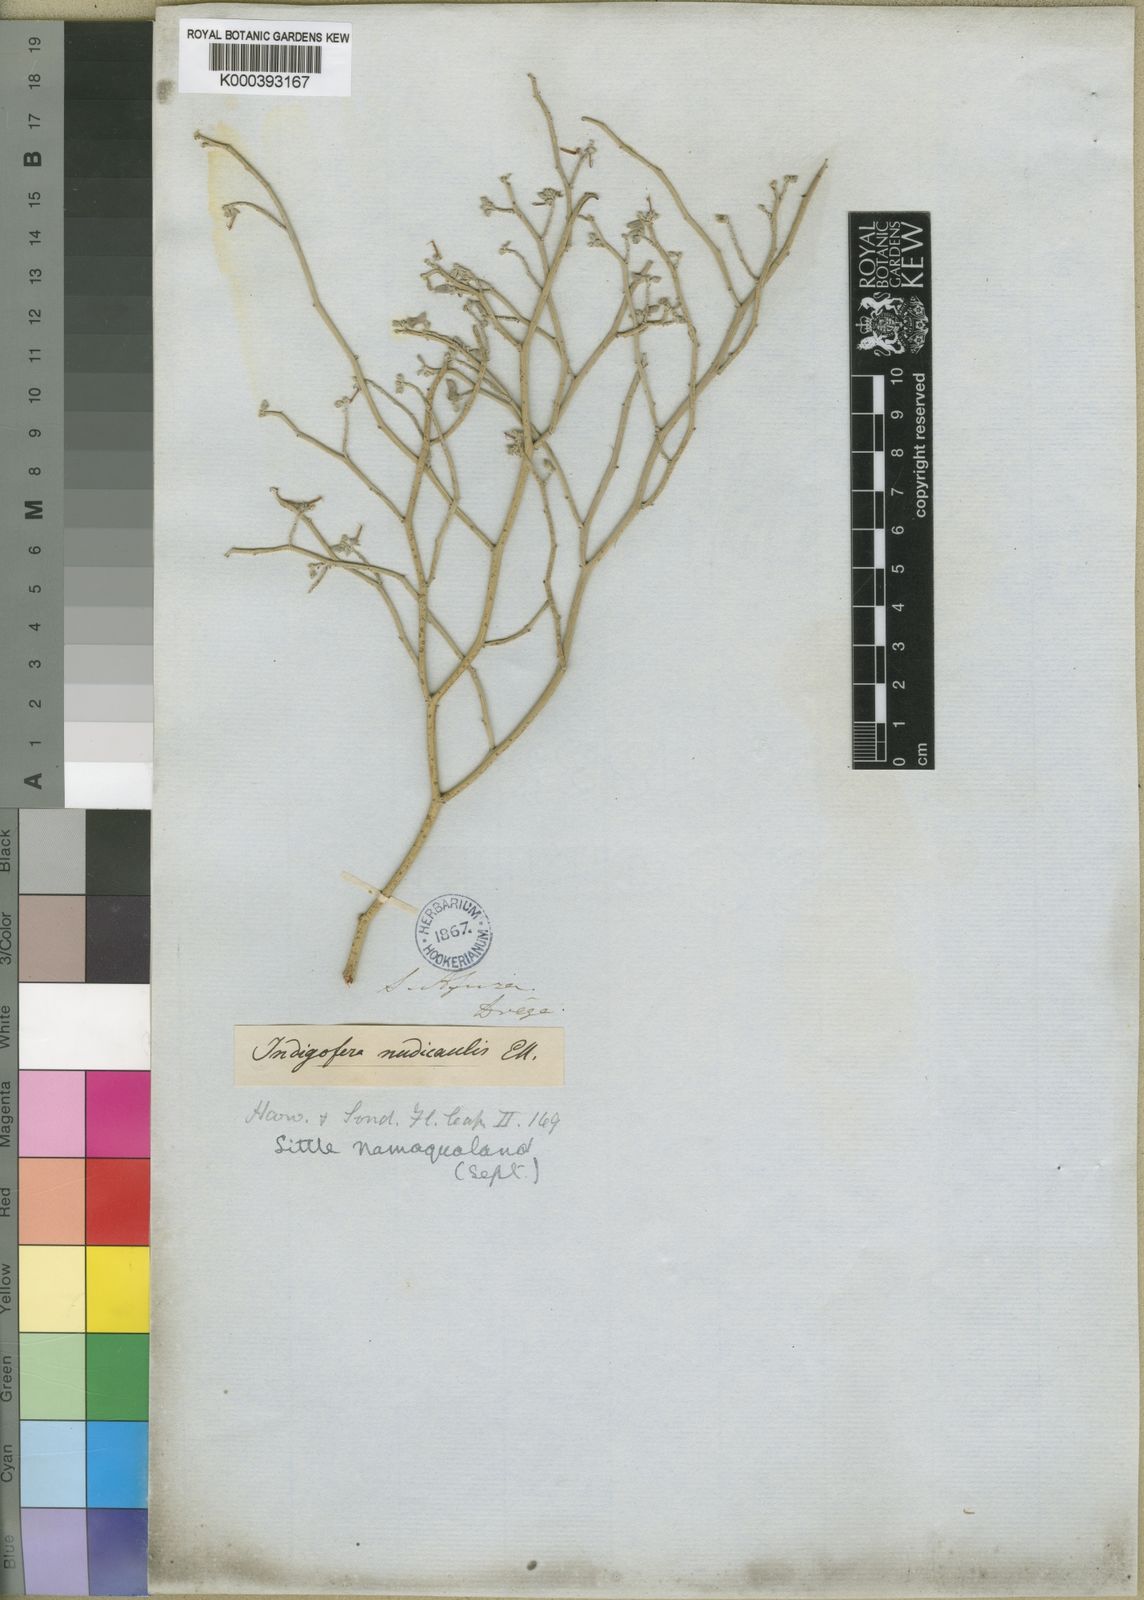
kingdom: Plantae
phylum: Tracheophyta
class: Magnoliopsida
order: Fabales
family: Fabaceae
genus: Indigofera
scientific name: Indigofera nudicaulis
